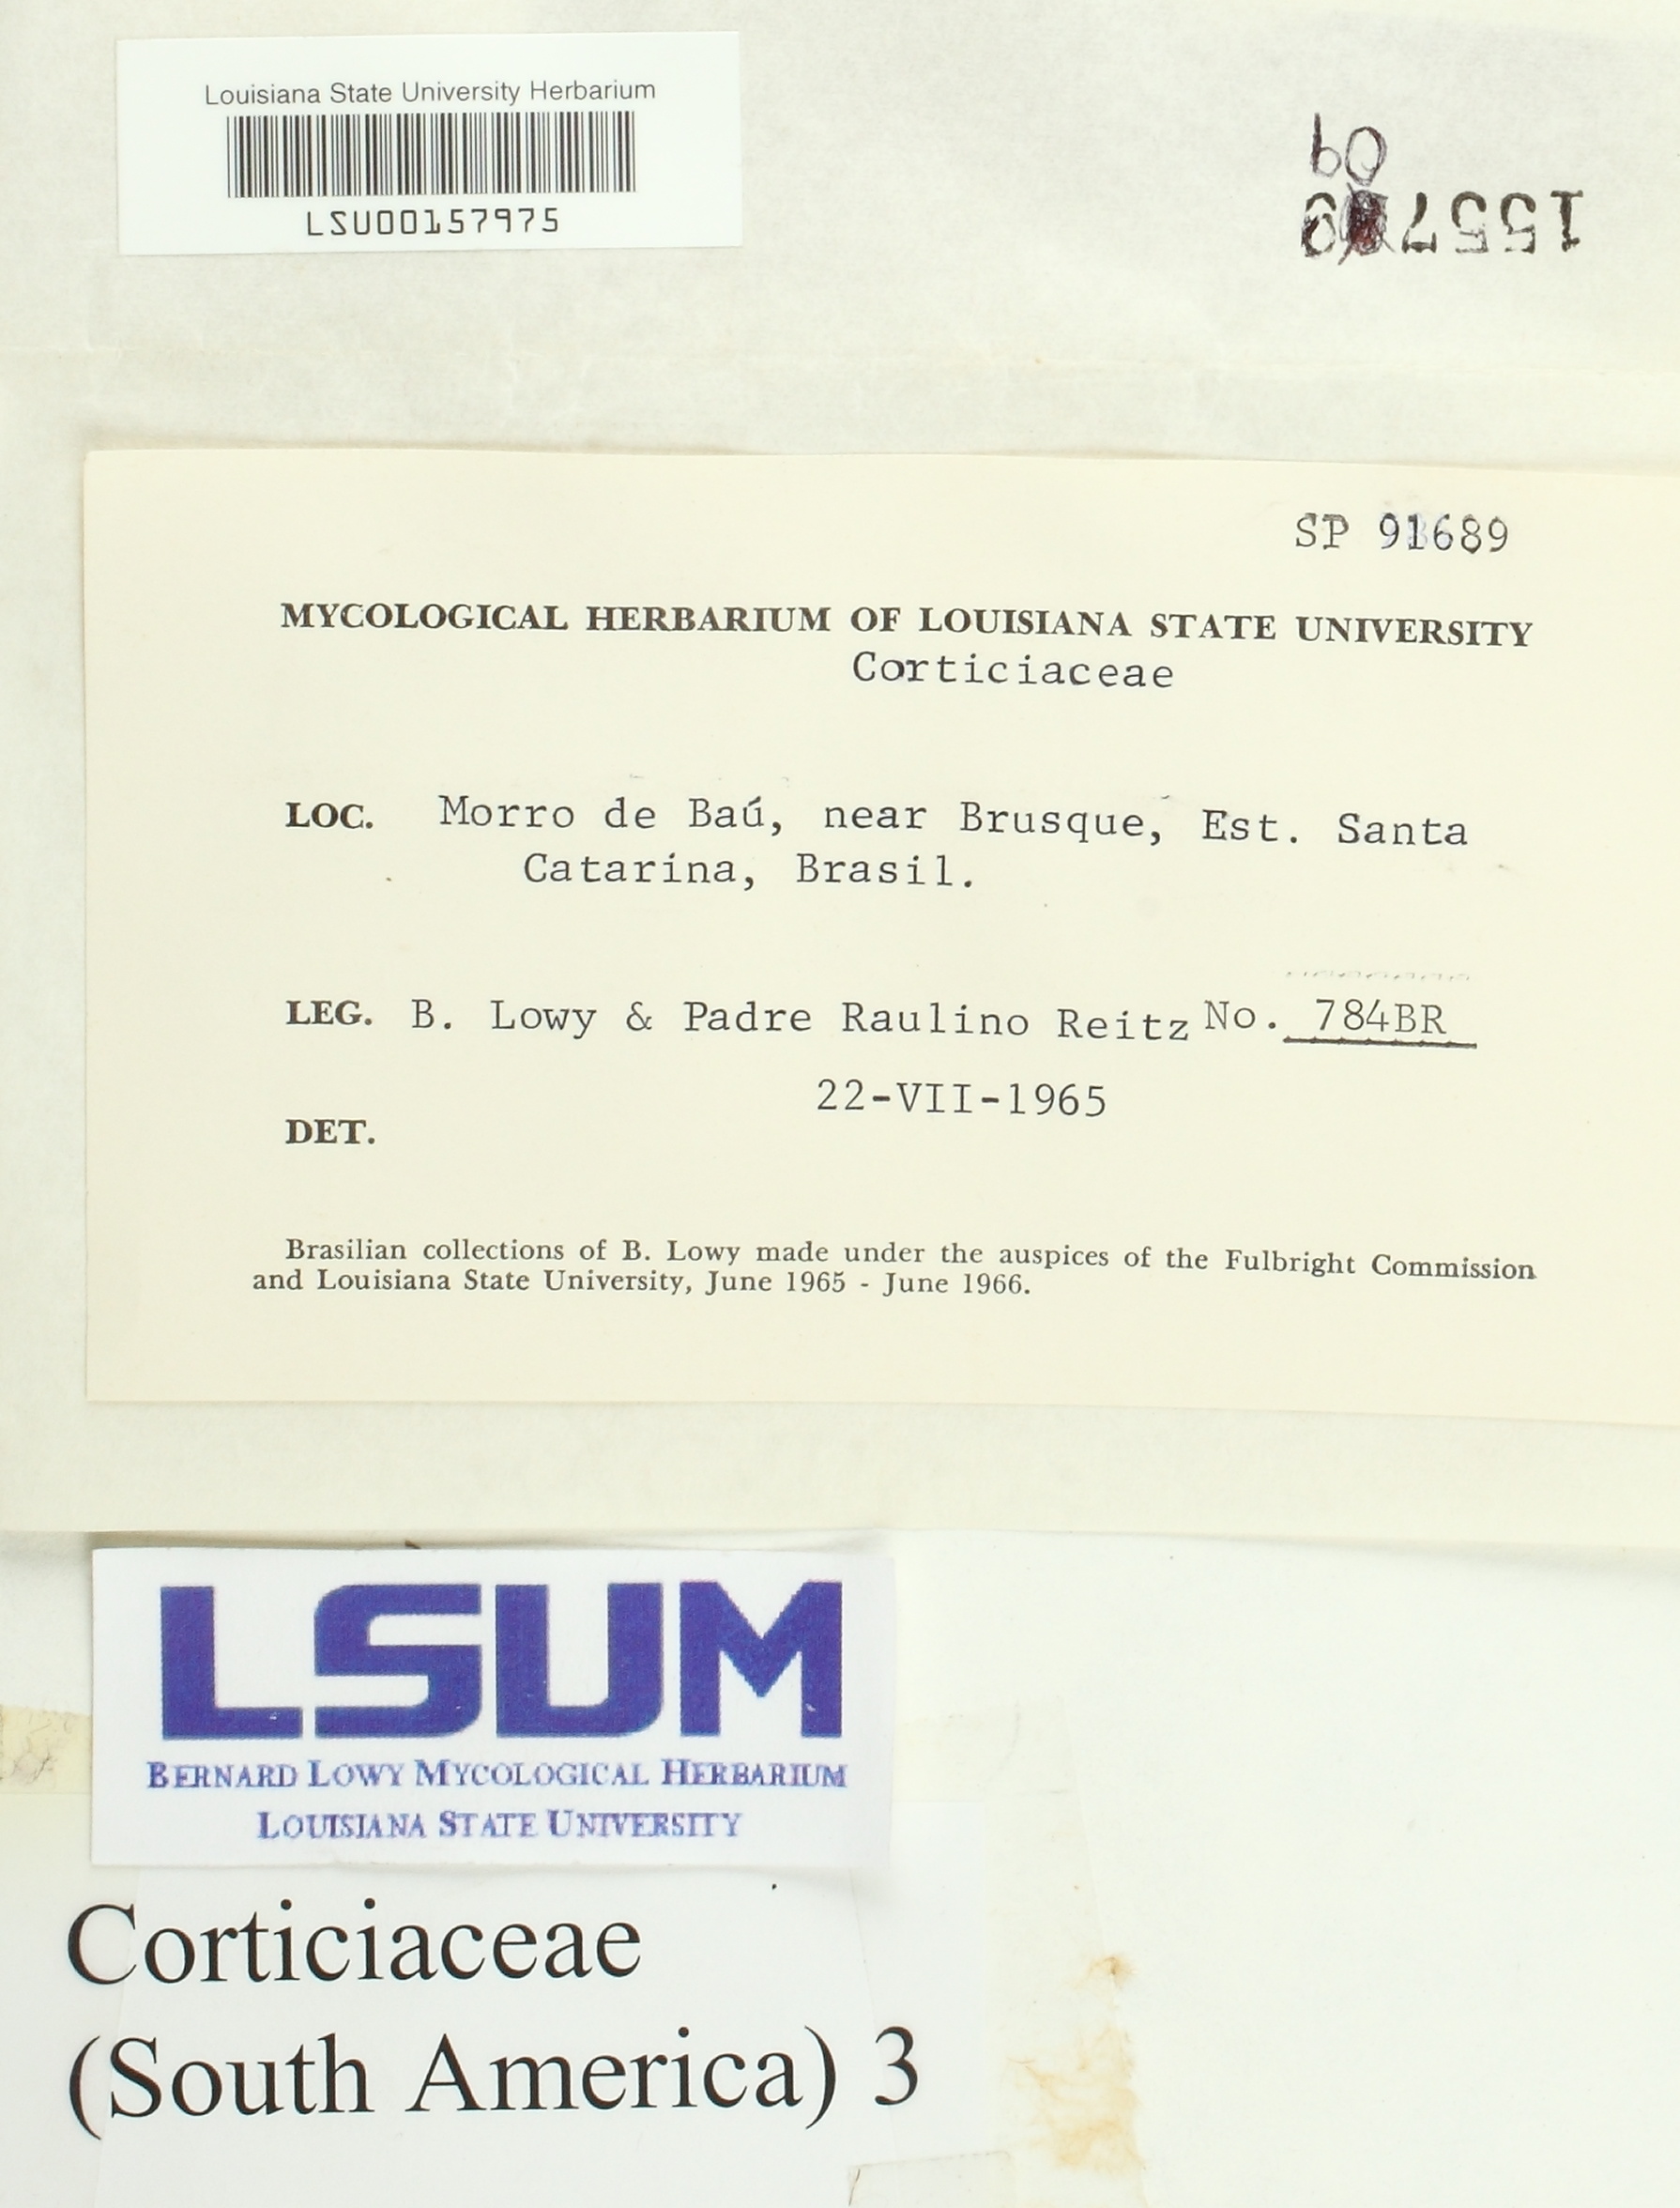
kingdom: Fungi
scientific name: Fungi
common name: Fungi
